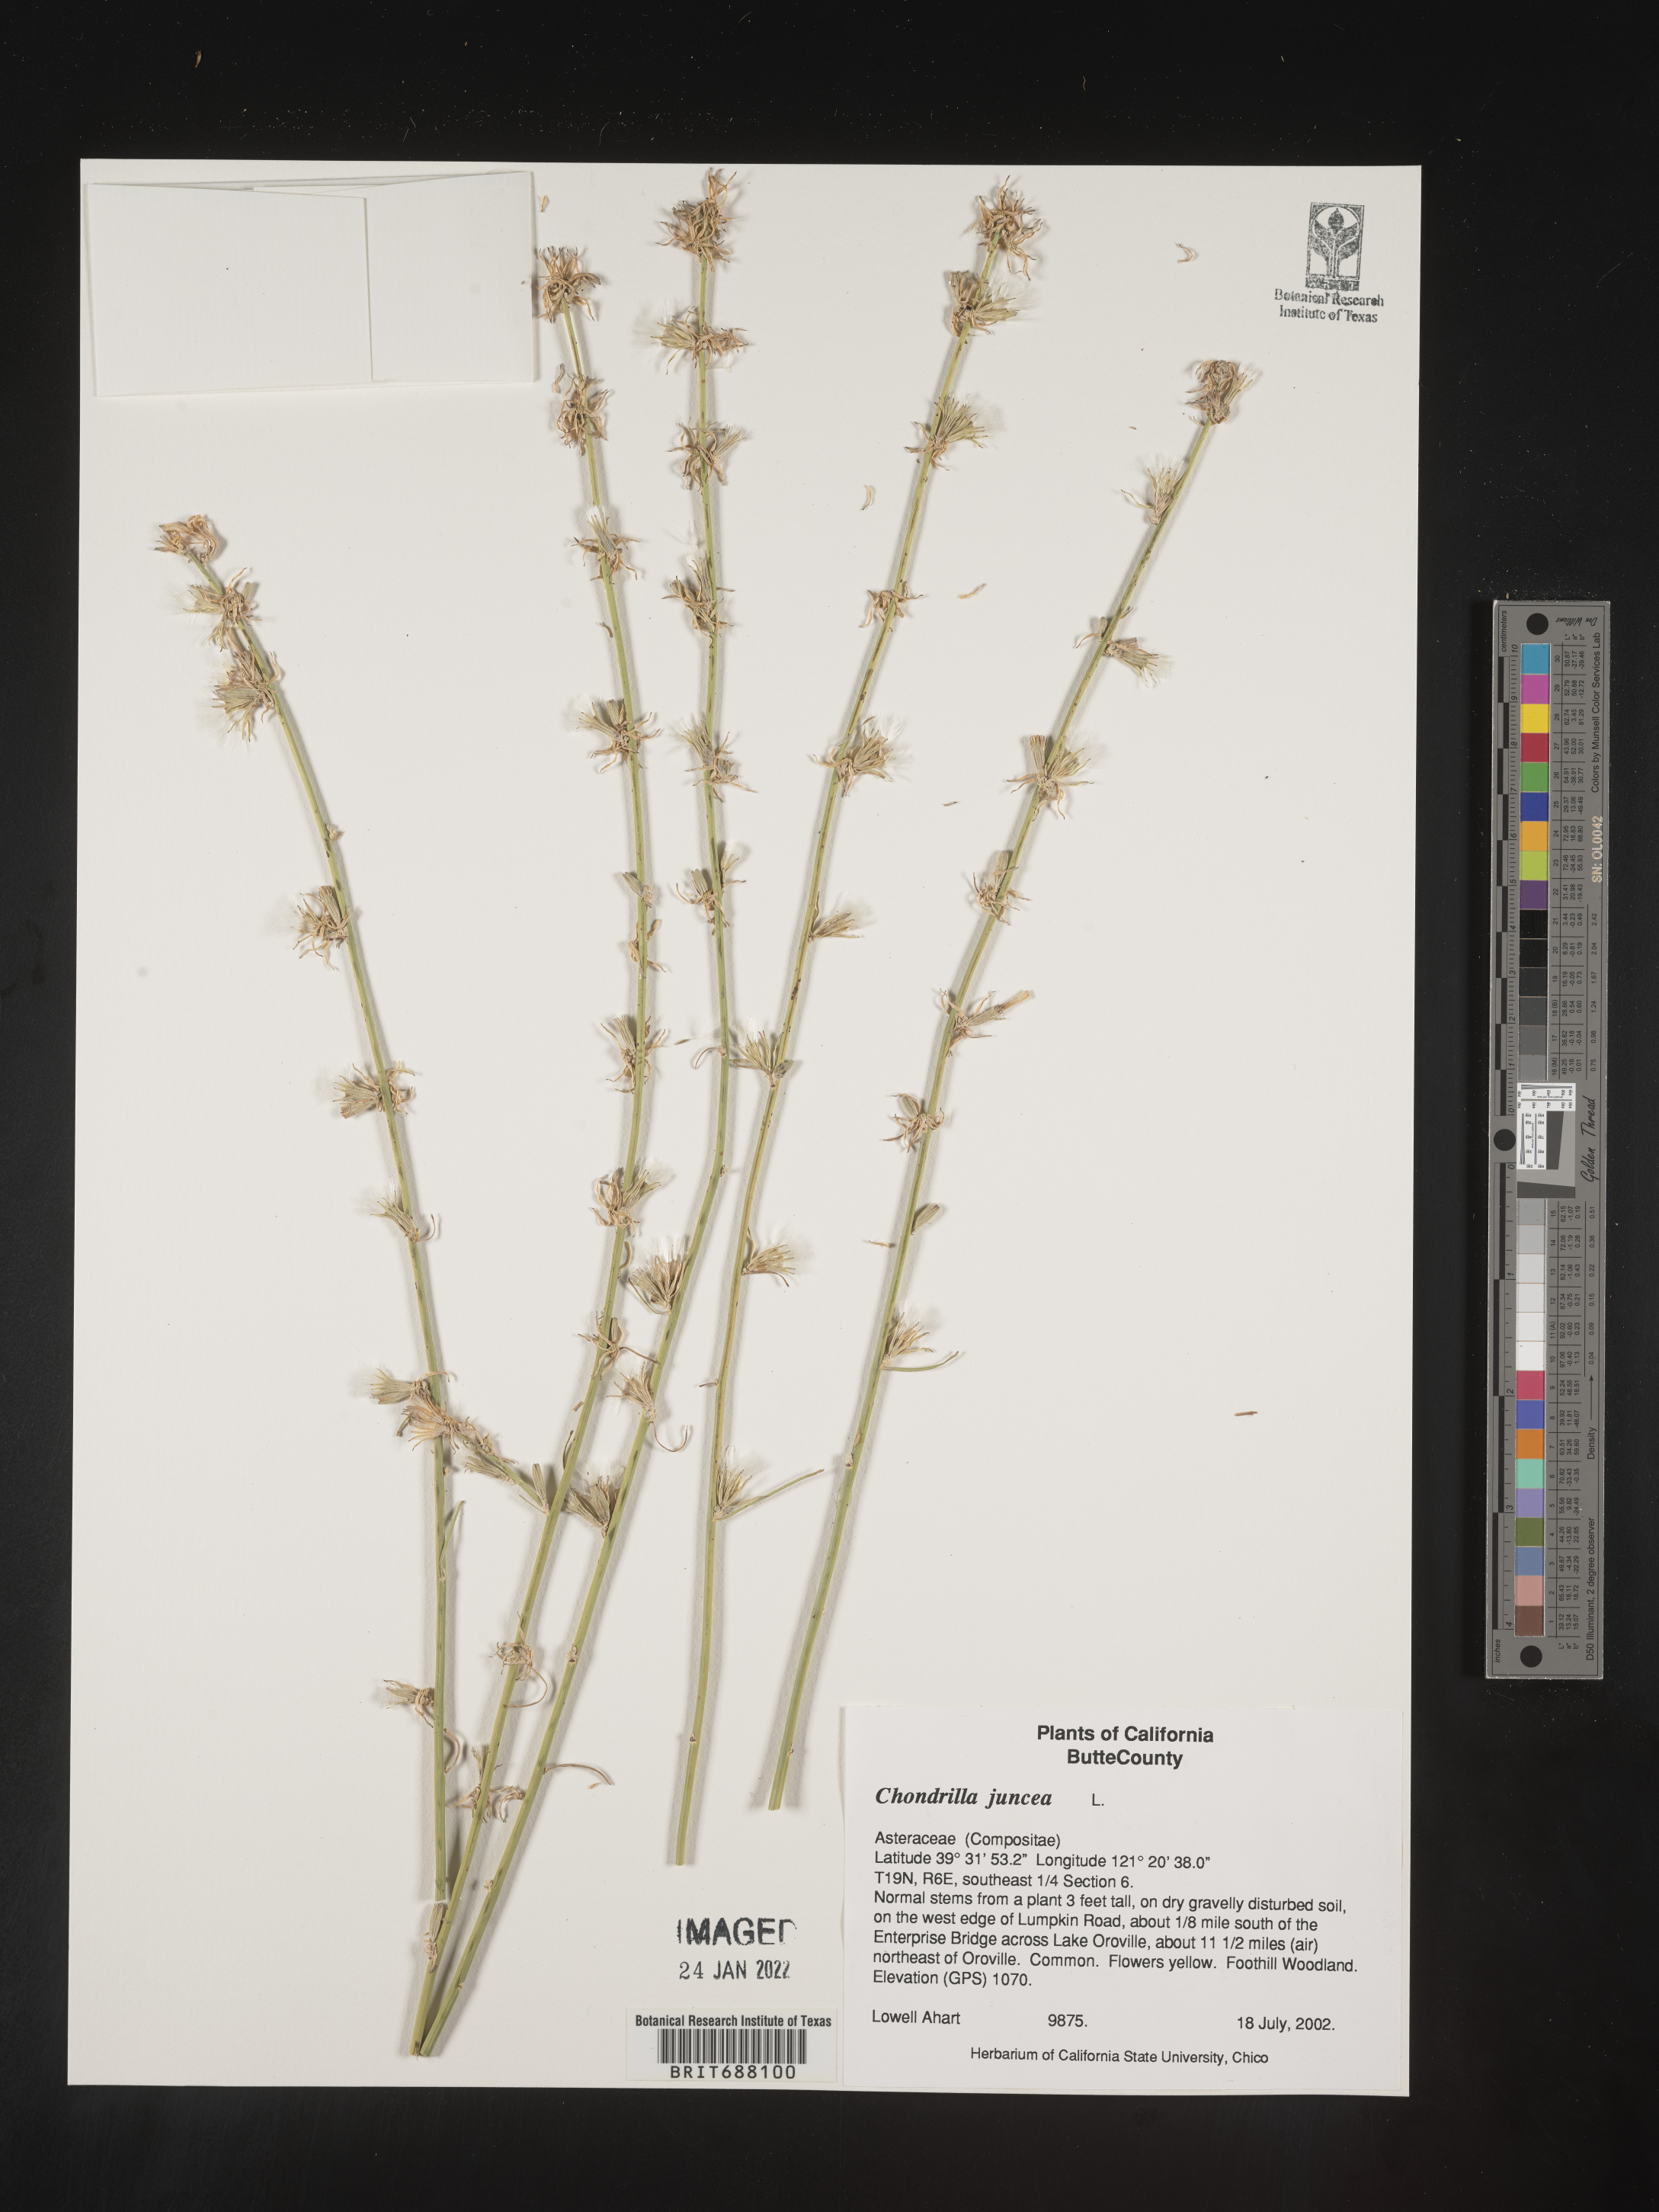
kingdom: Plantae
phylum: Tracheophyta
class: Magnoliopsida
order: Asterales
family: Asteraceae
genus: Chondrilla
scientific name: Chondrilla
